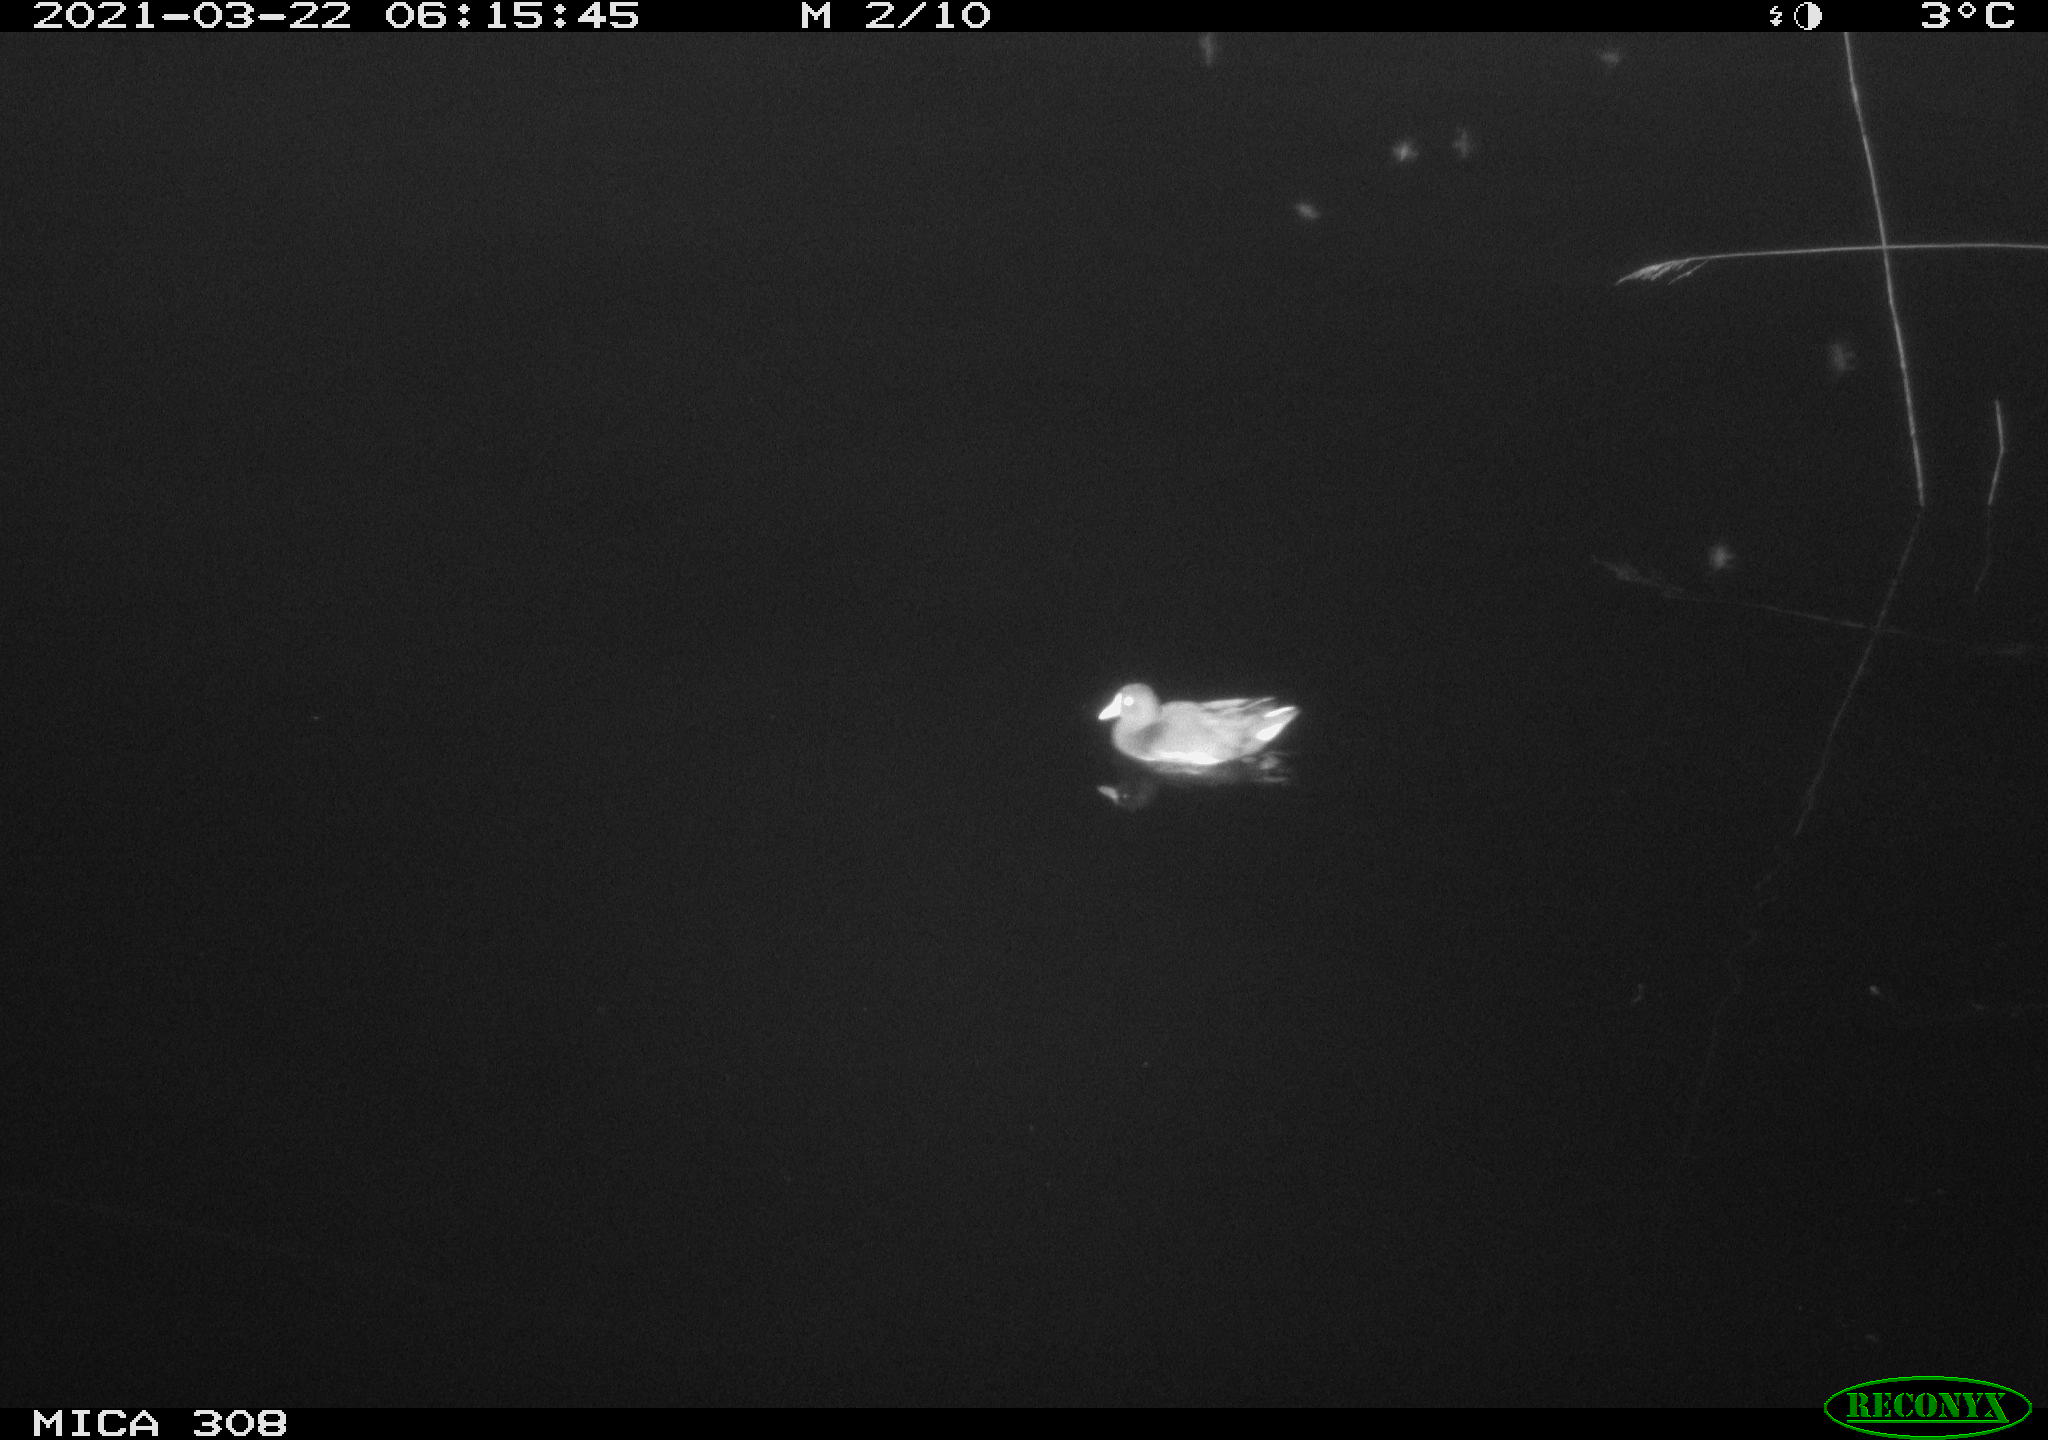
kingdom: Animalia
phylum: Chordata
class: Aves
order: Gruiformes
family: Rallidae
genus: Gallinula
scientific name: Gallinula chloropus
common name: Common moorhen
